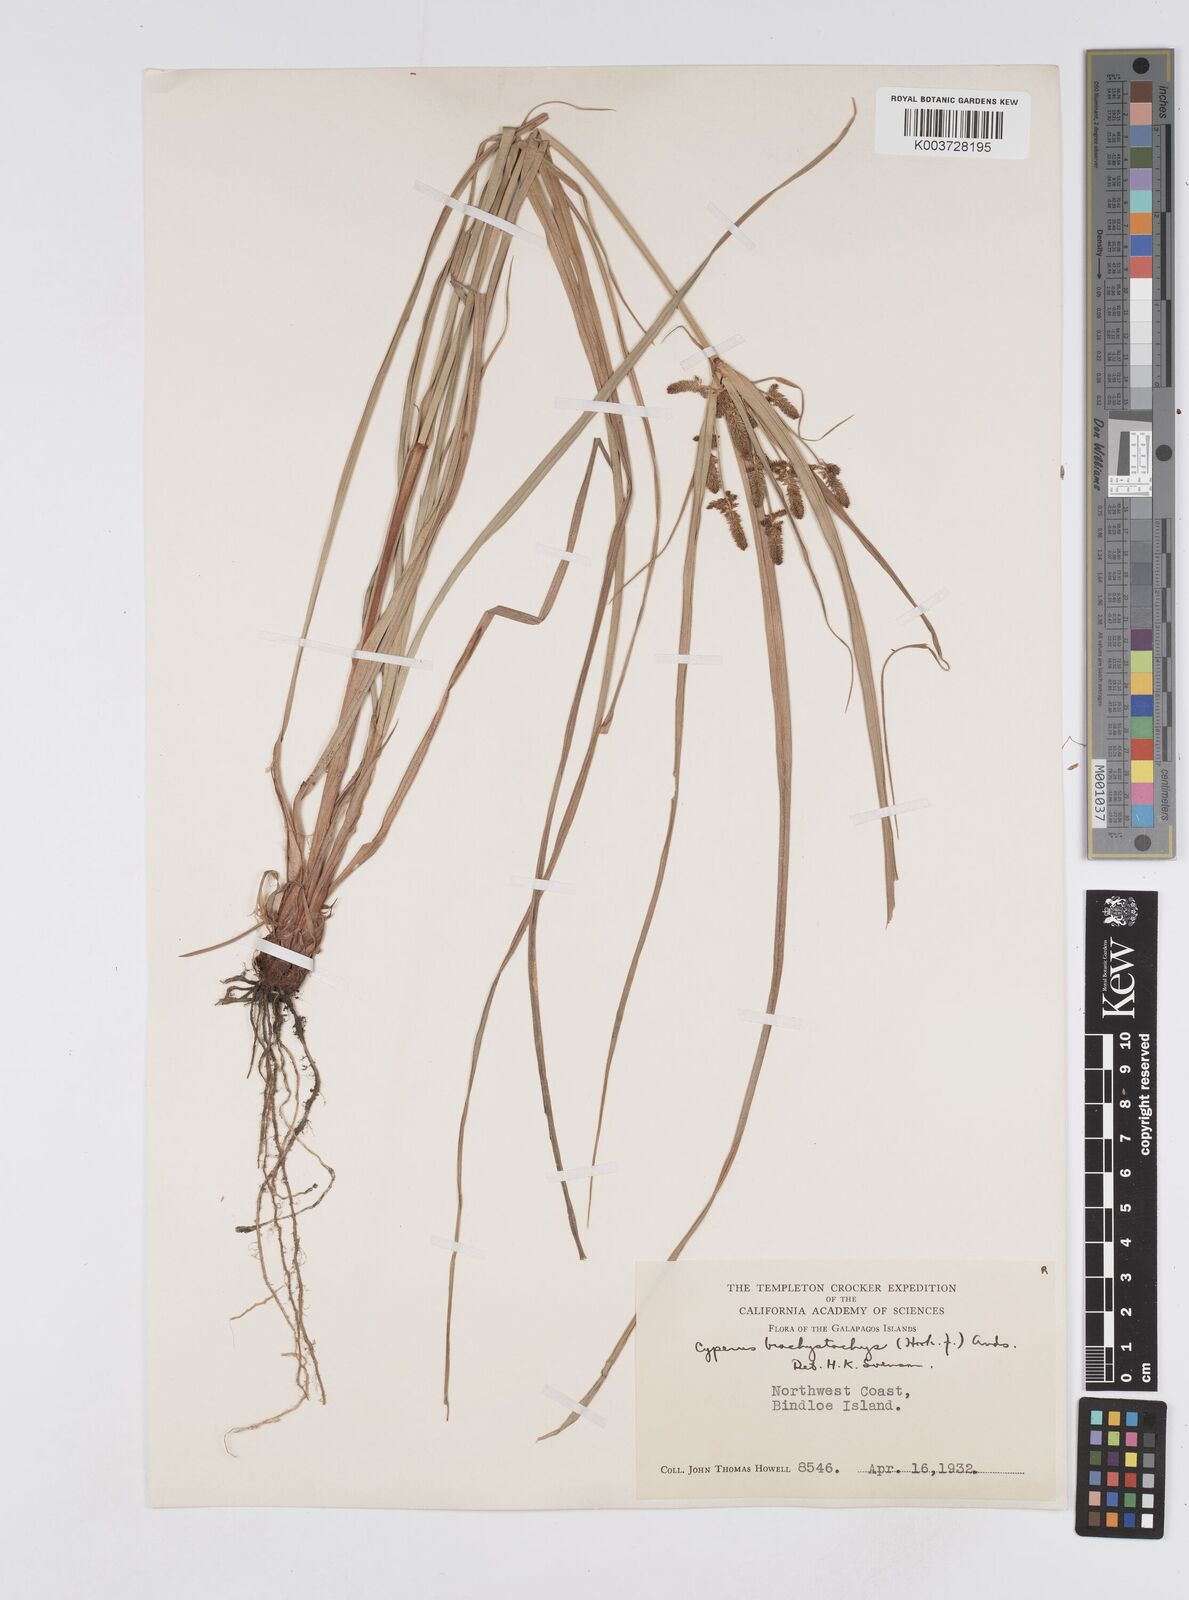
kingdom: Plantae
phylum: Tracheophyta
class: Liliopsida
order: Poales
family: Cyperaceae
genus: Cyperus
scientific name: Cyperus anderssonii
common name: Andersson's sedge
